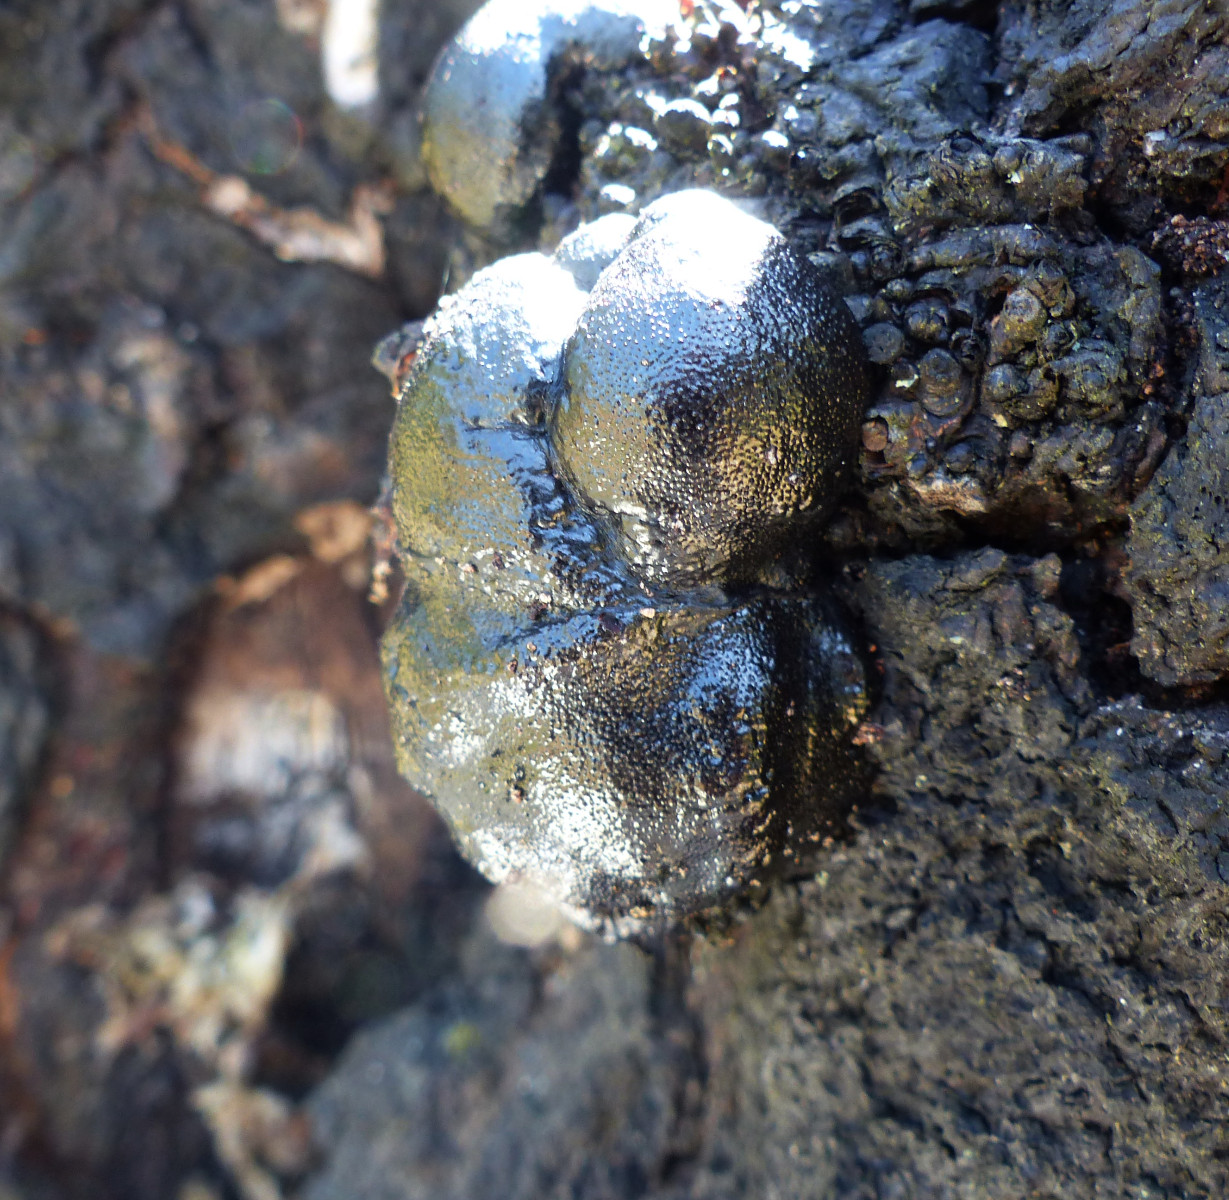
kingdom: Fungi
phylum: Ascomycota
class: Sordariomycetes
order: Xylariales
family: Hypoxylaceae
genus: Daldinia
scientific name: Daldinia
